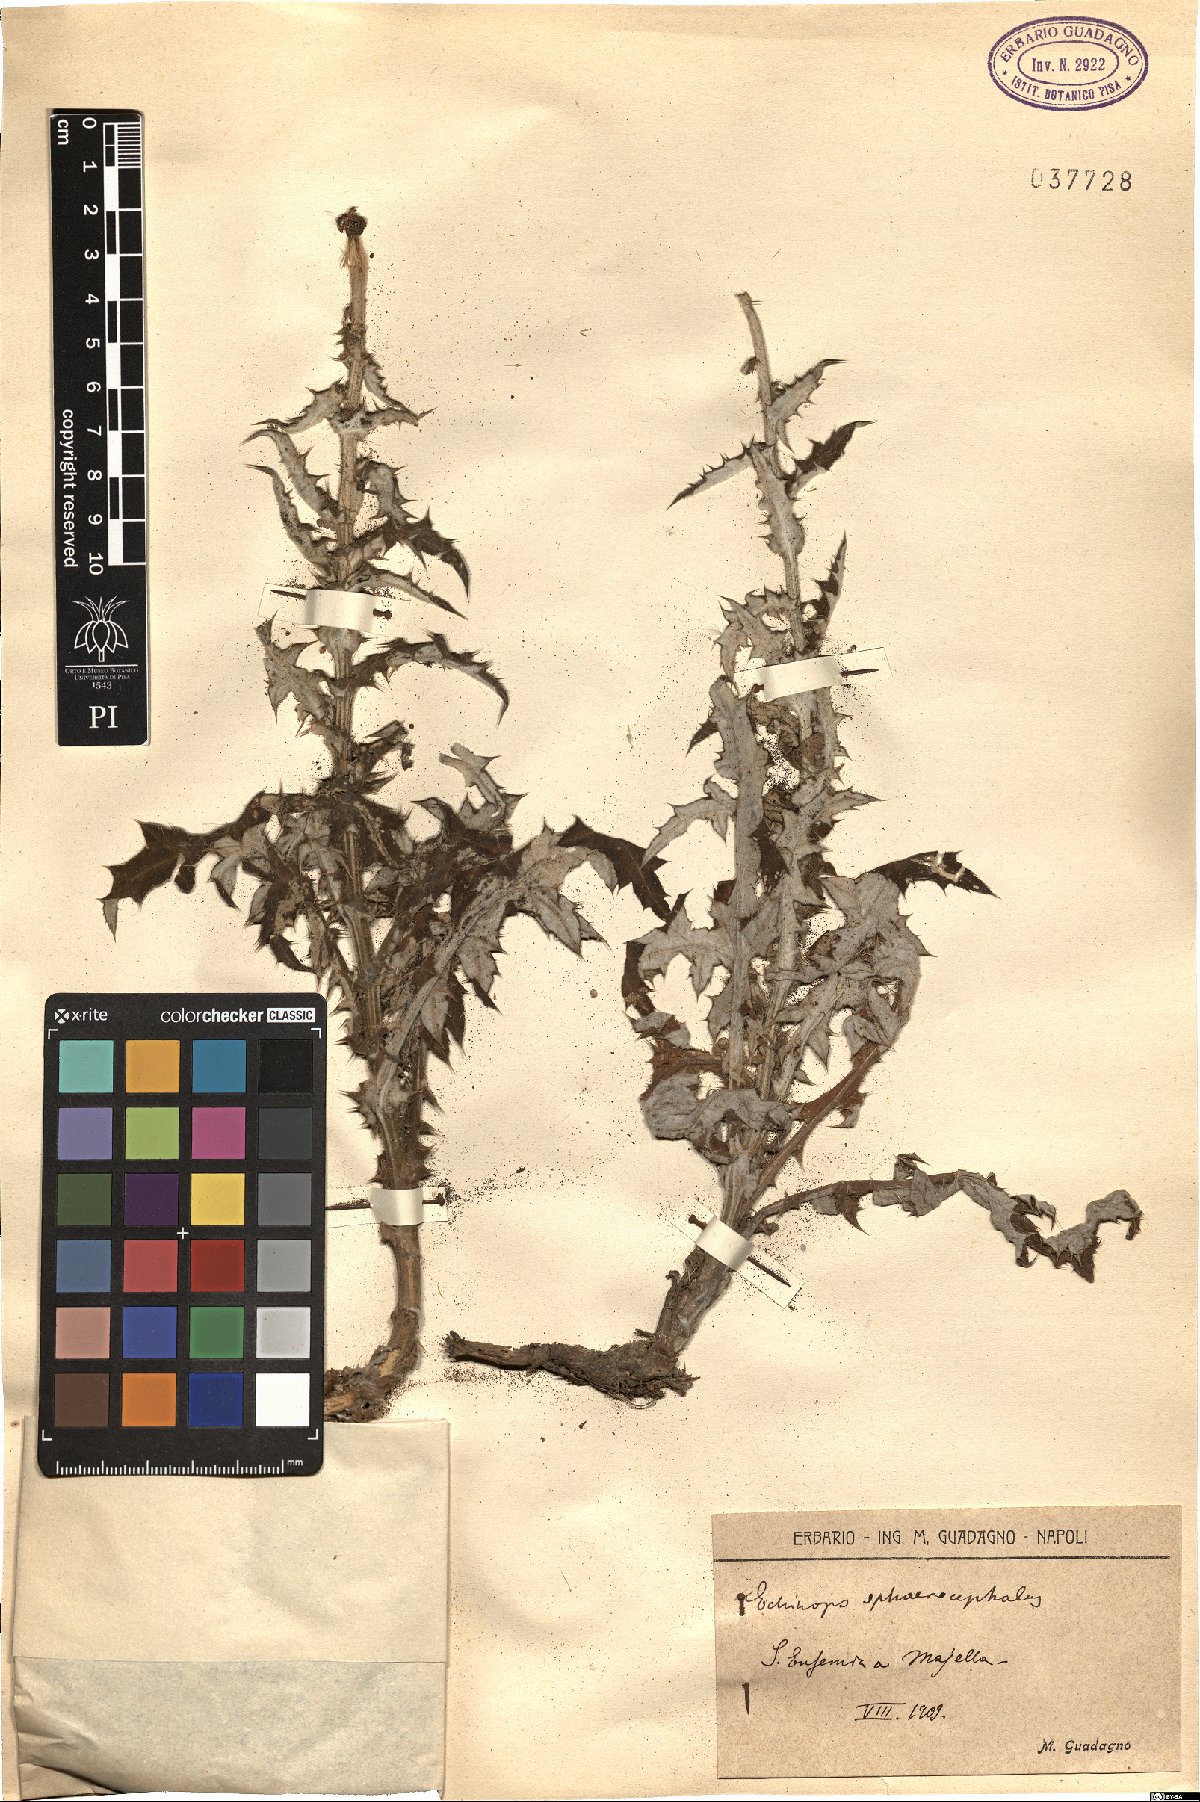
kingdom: Plantae
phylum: Tracheophyta
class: Magnoliopsida
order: Asterales
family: Asteraceae
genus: Echinops
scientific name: Echinops sphaerocephalus
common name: Glandular globe-thistle
